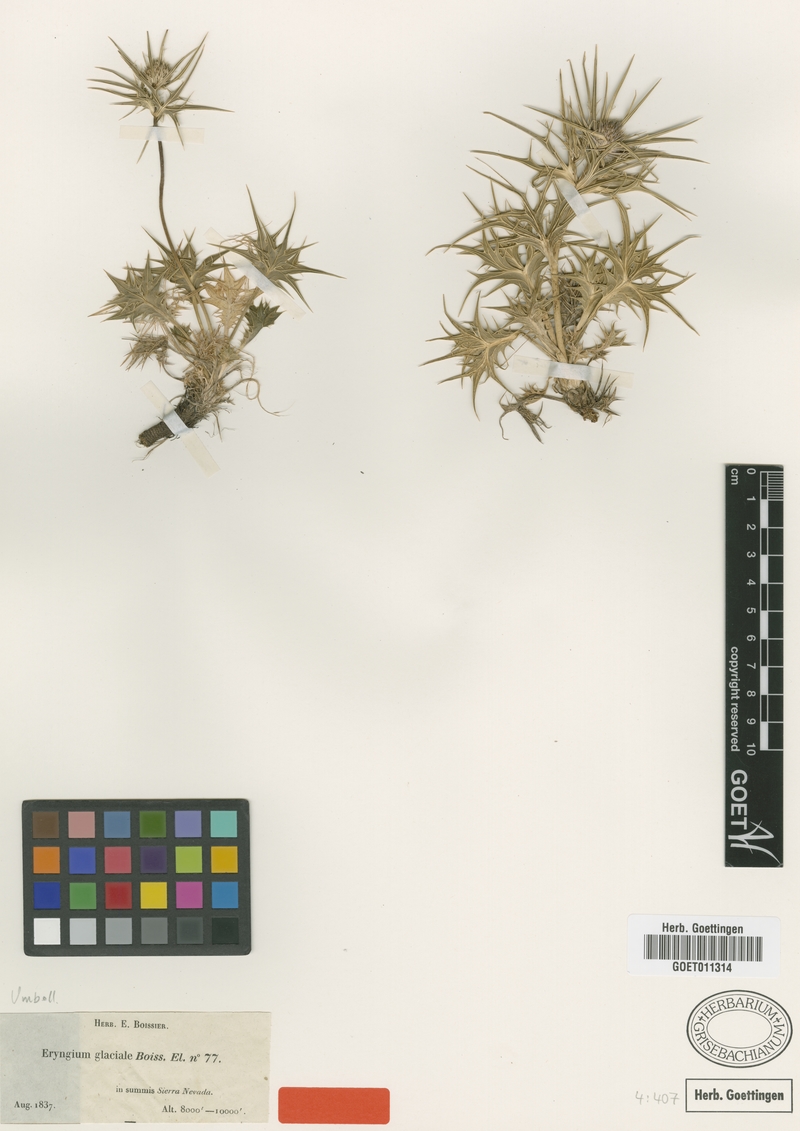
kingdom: Plantae
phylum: Tracheophyta
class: Magnoliopsida
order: Apiales
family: Apiaceae
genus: Eryngium
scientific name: Eryngium glaciale
